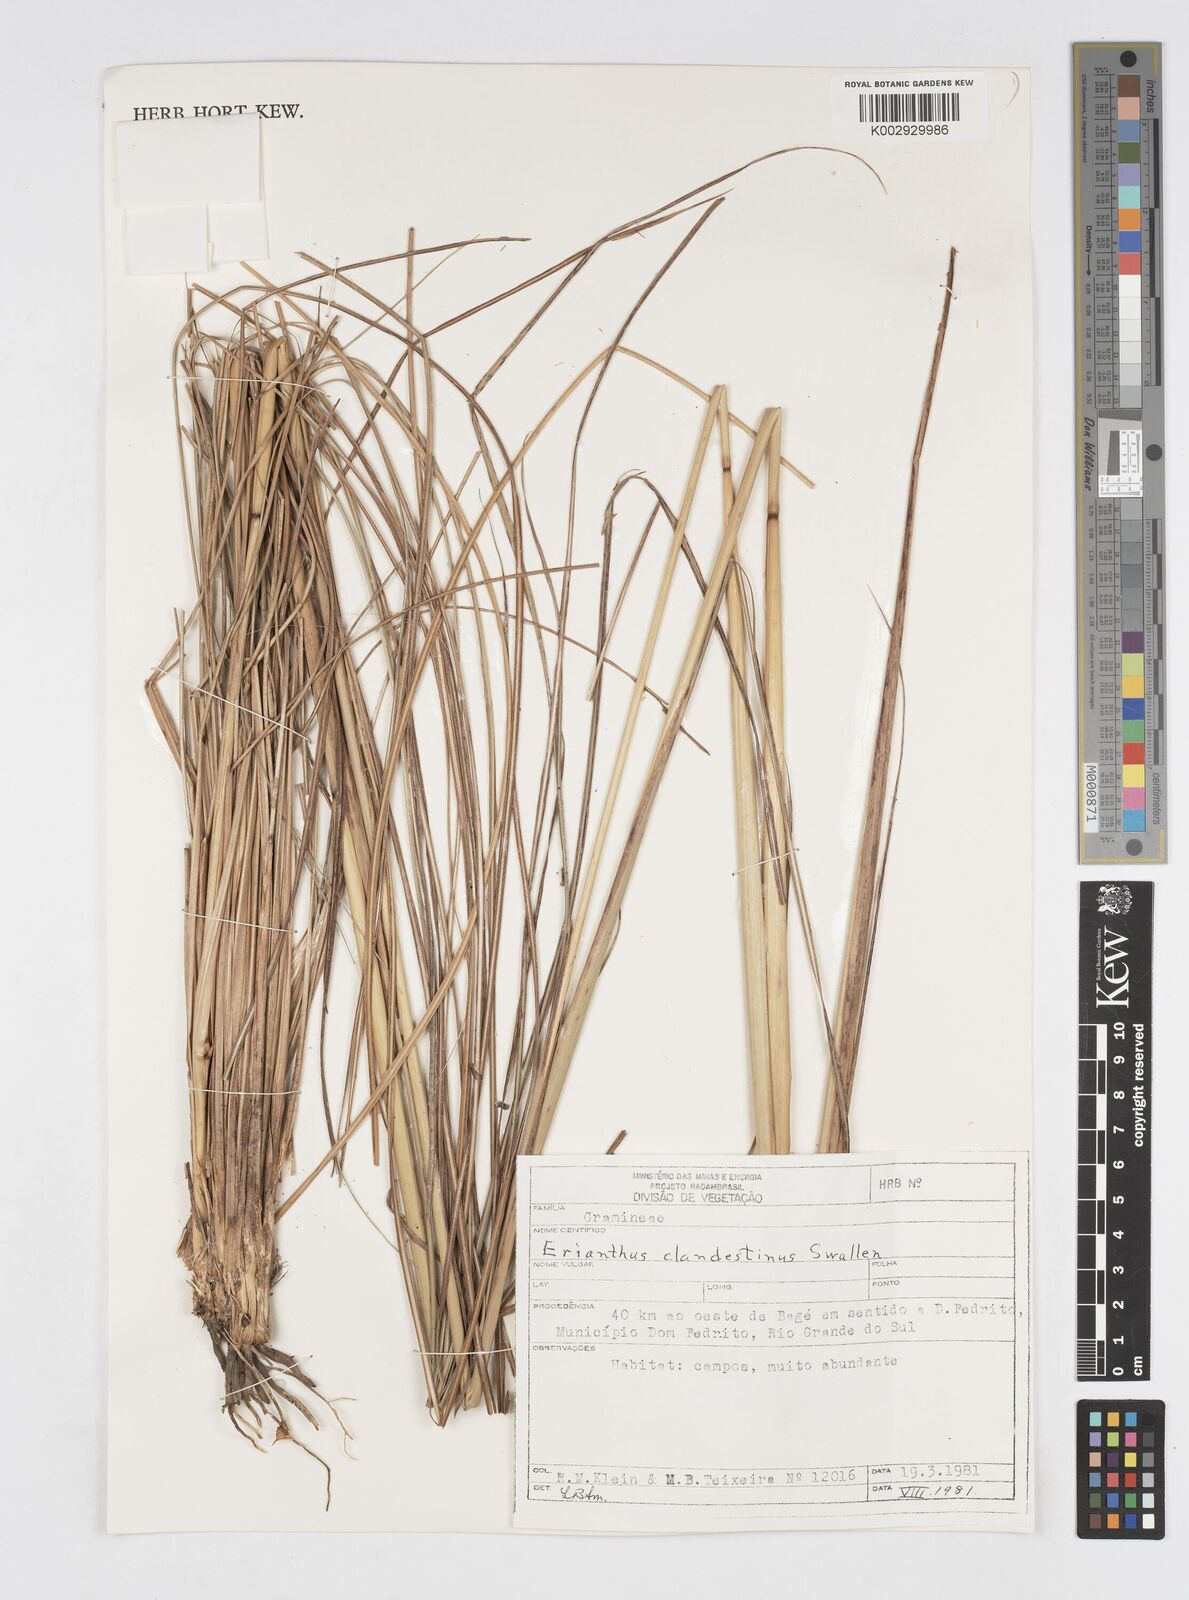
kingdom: Plantae
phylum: Tracheophyta
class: Liliopsida
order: Poales
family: Poaceae
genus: Erianthus
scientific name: Erianthus trinii
